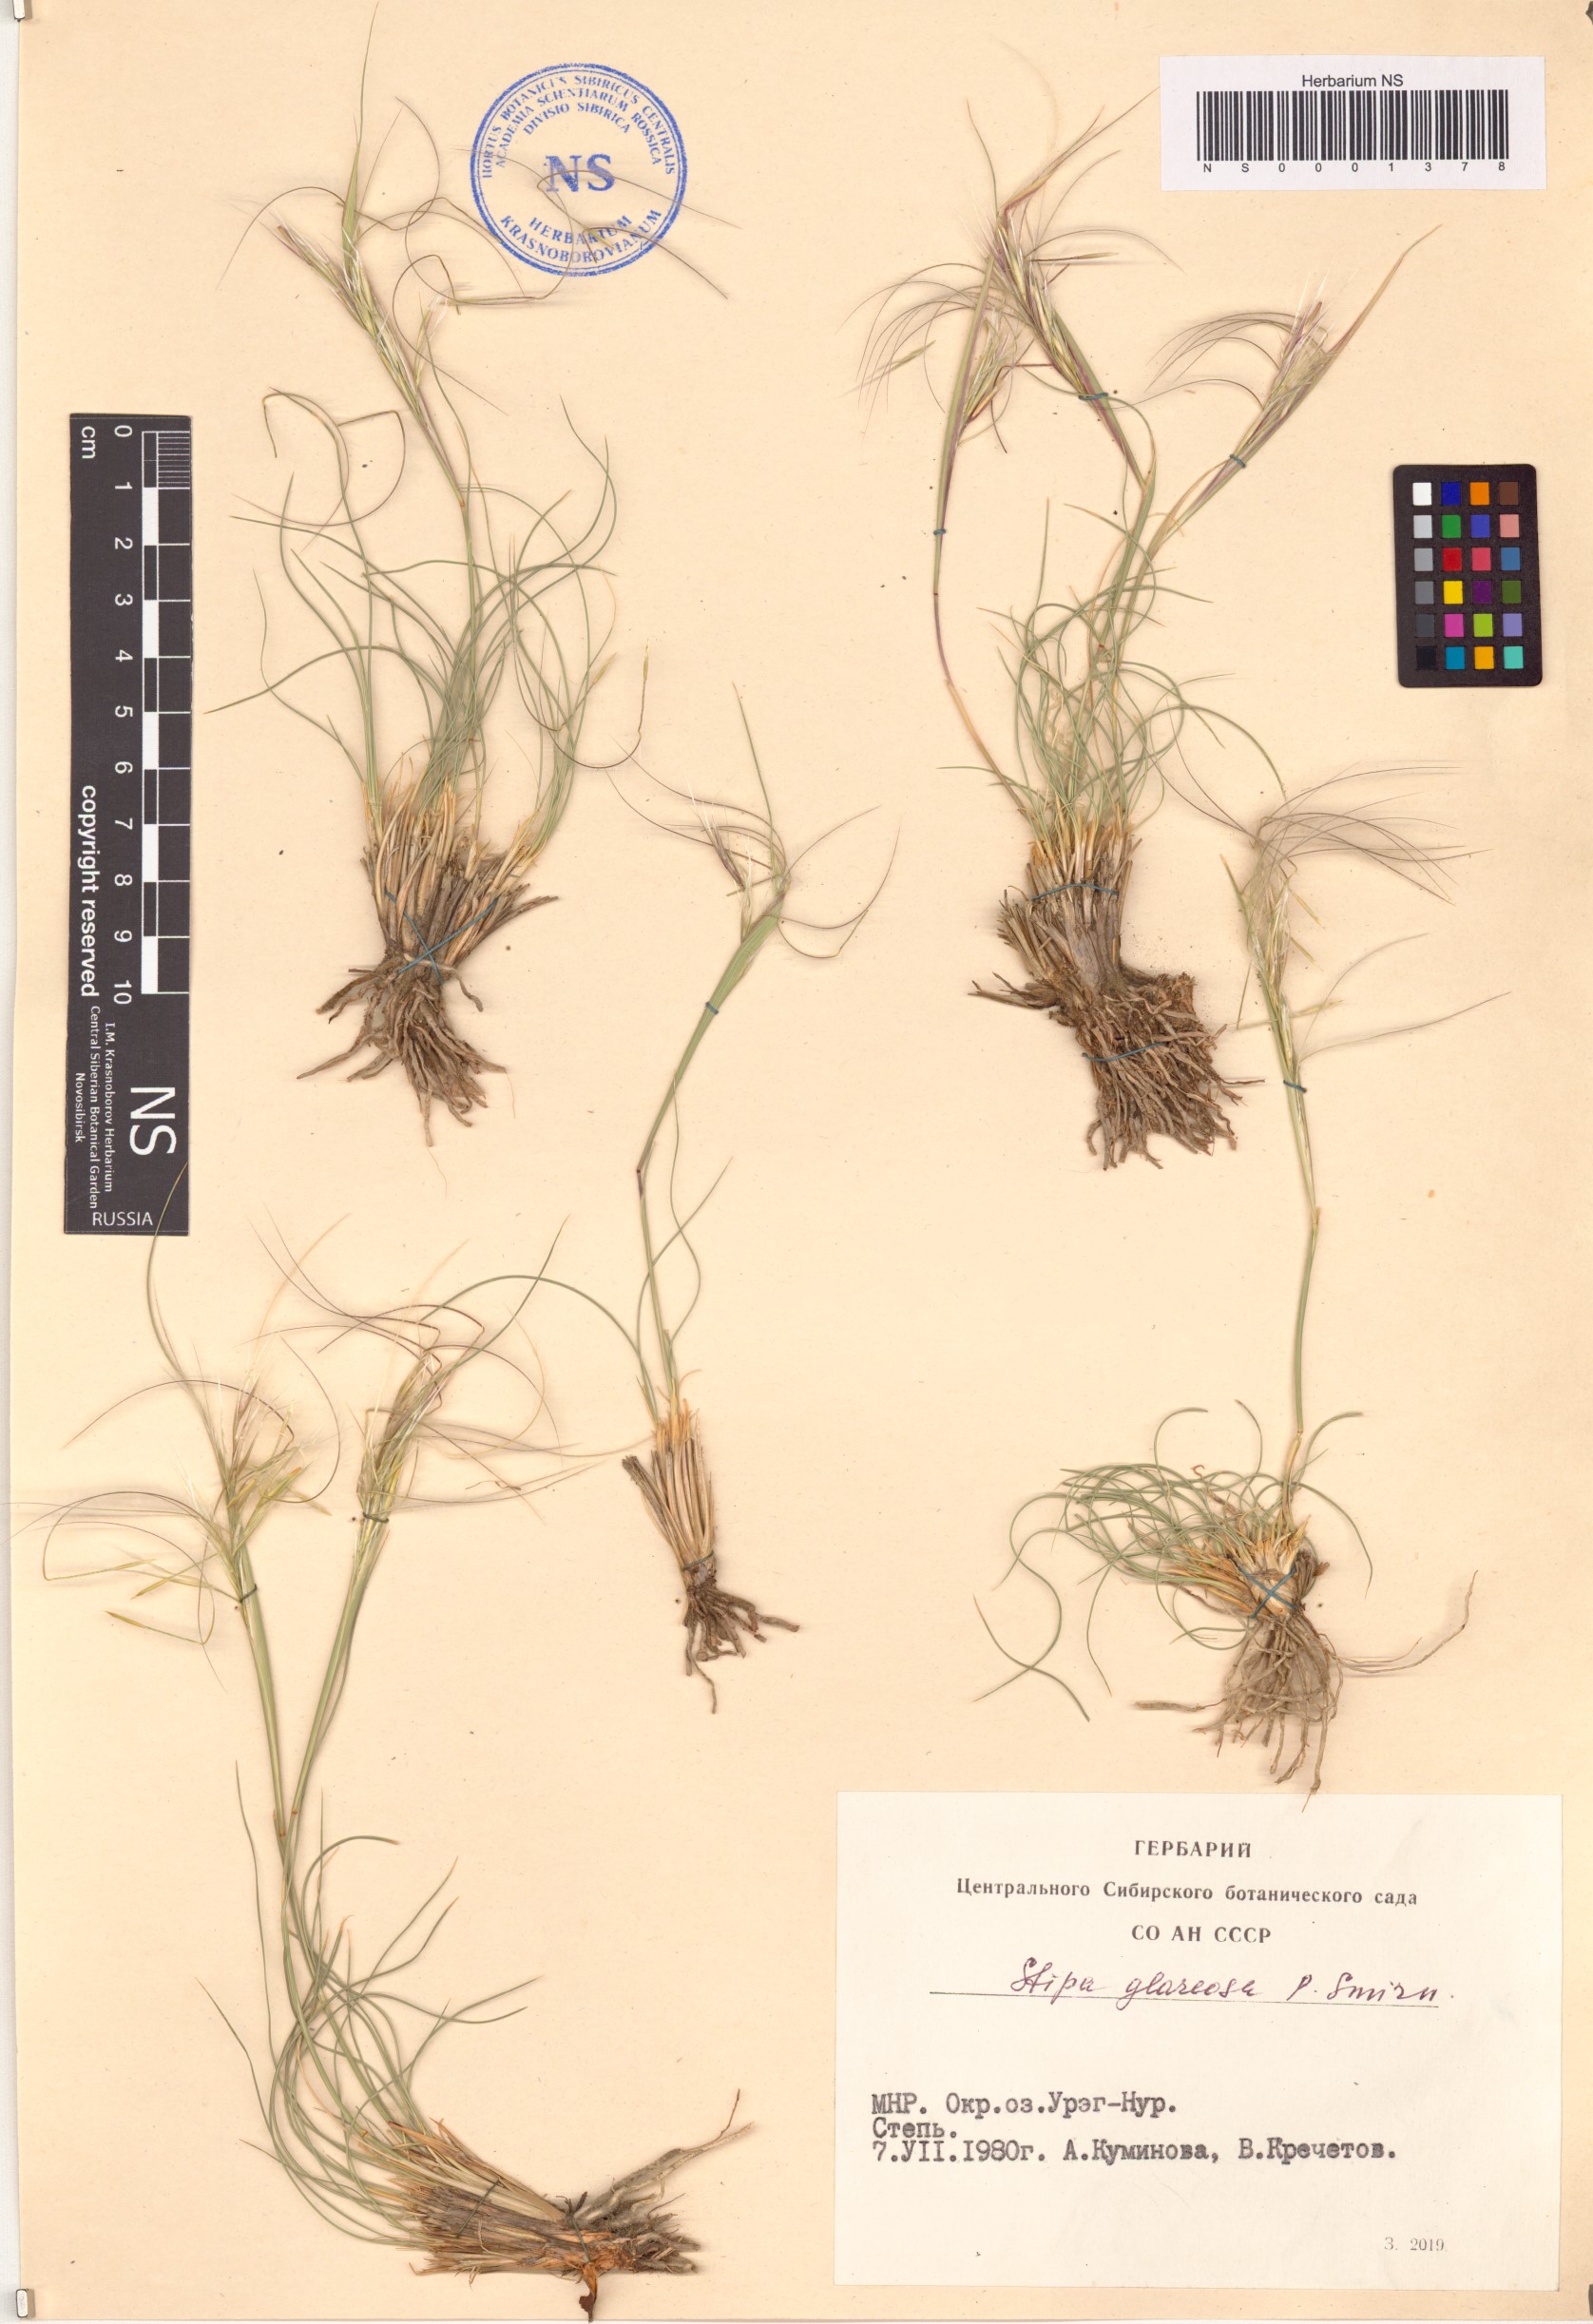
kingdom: Plantae
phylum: Tracheophyta
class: Liliopsida
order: Poales
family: Poaceae
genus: Stipa
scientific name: Stipa glareosa
